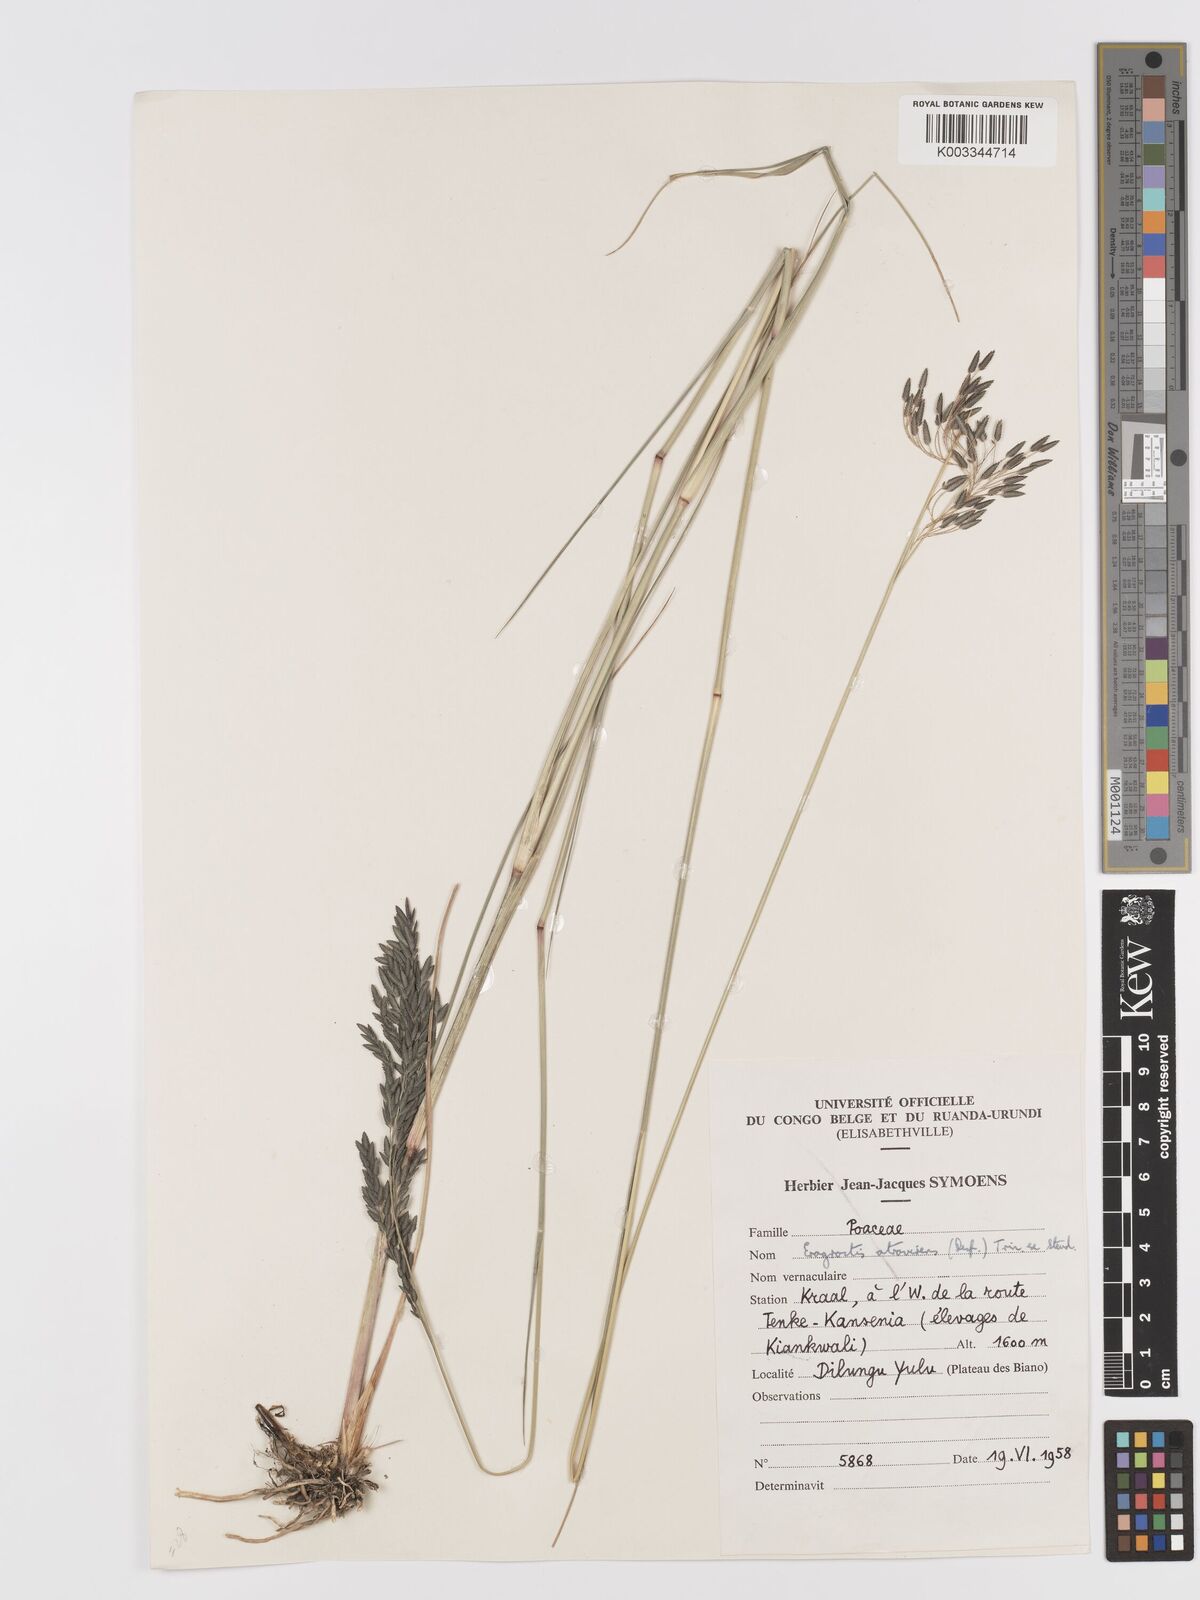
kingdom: Plantae
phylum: Tracheophyta
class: Liliopsida
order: Poales
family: Poaceae
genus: Eragrostis
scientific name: Eragrostis botryodes
